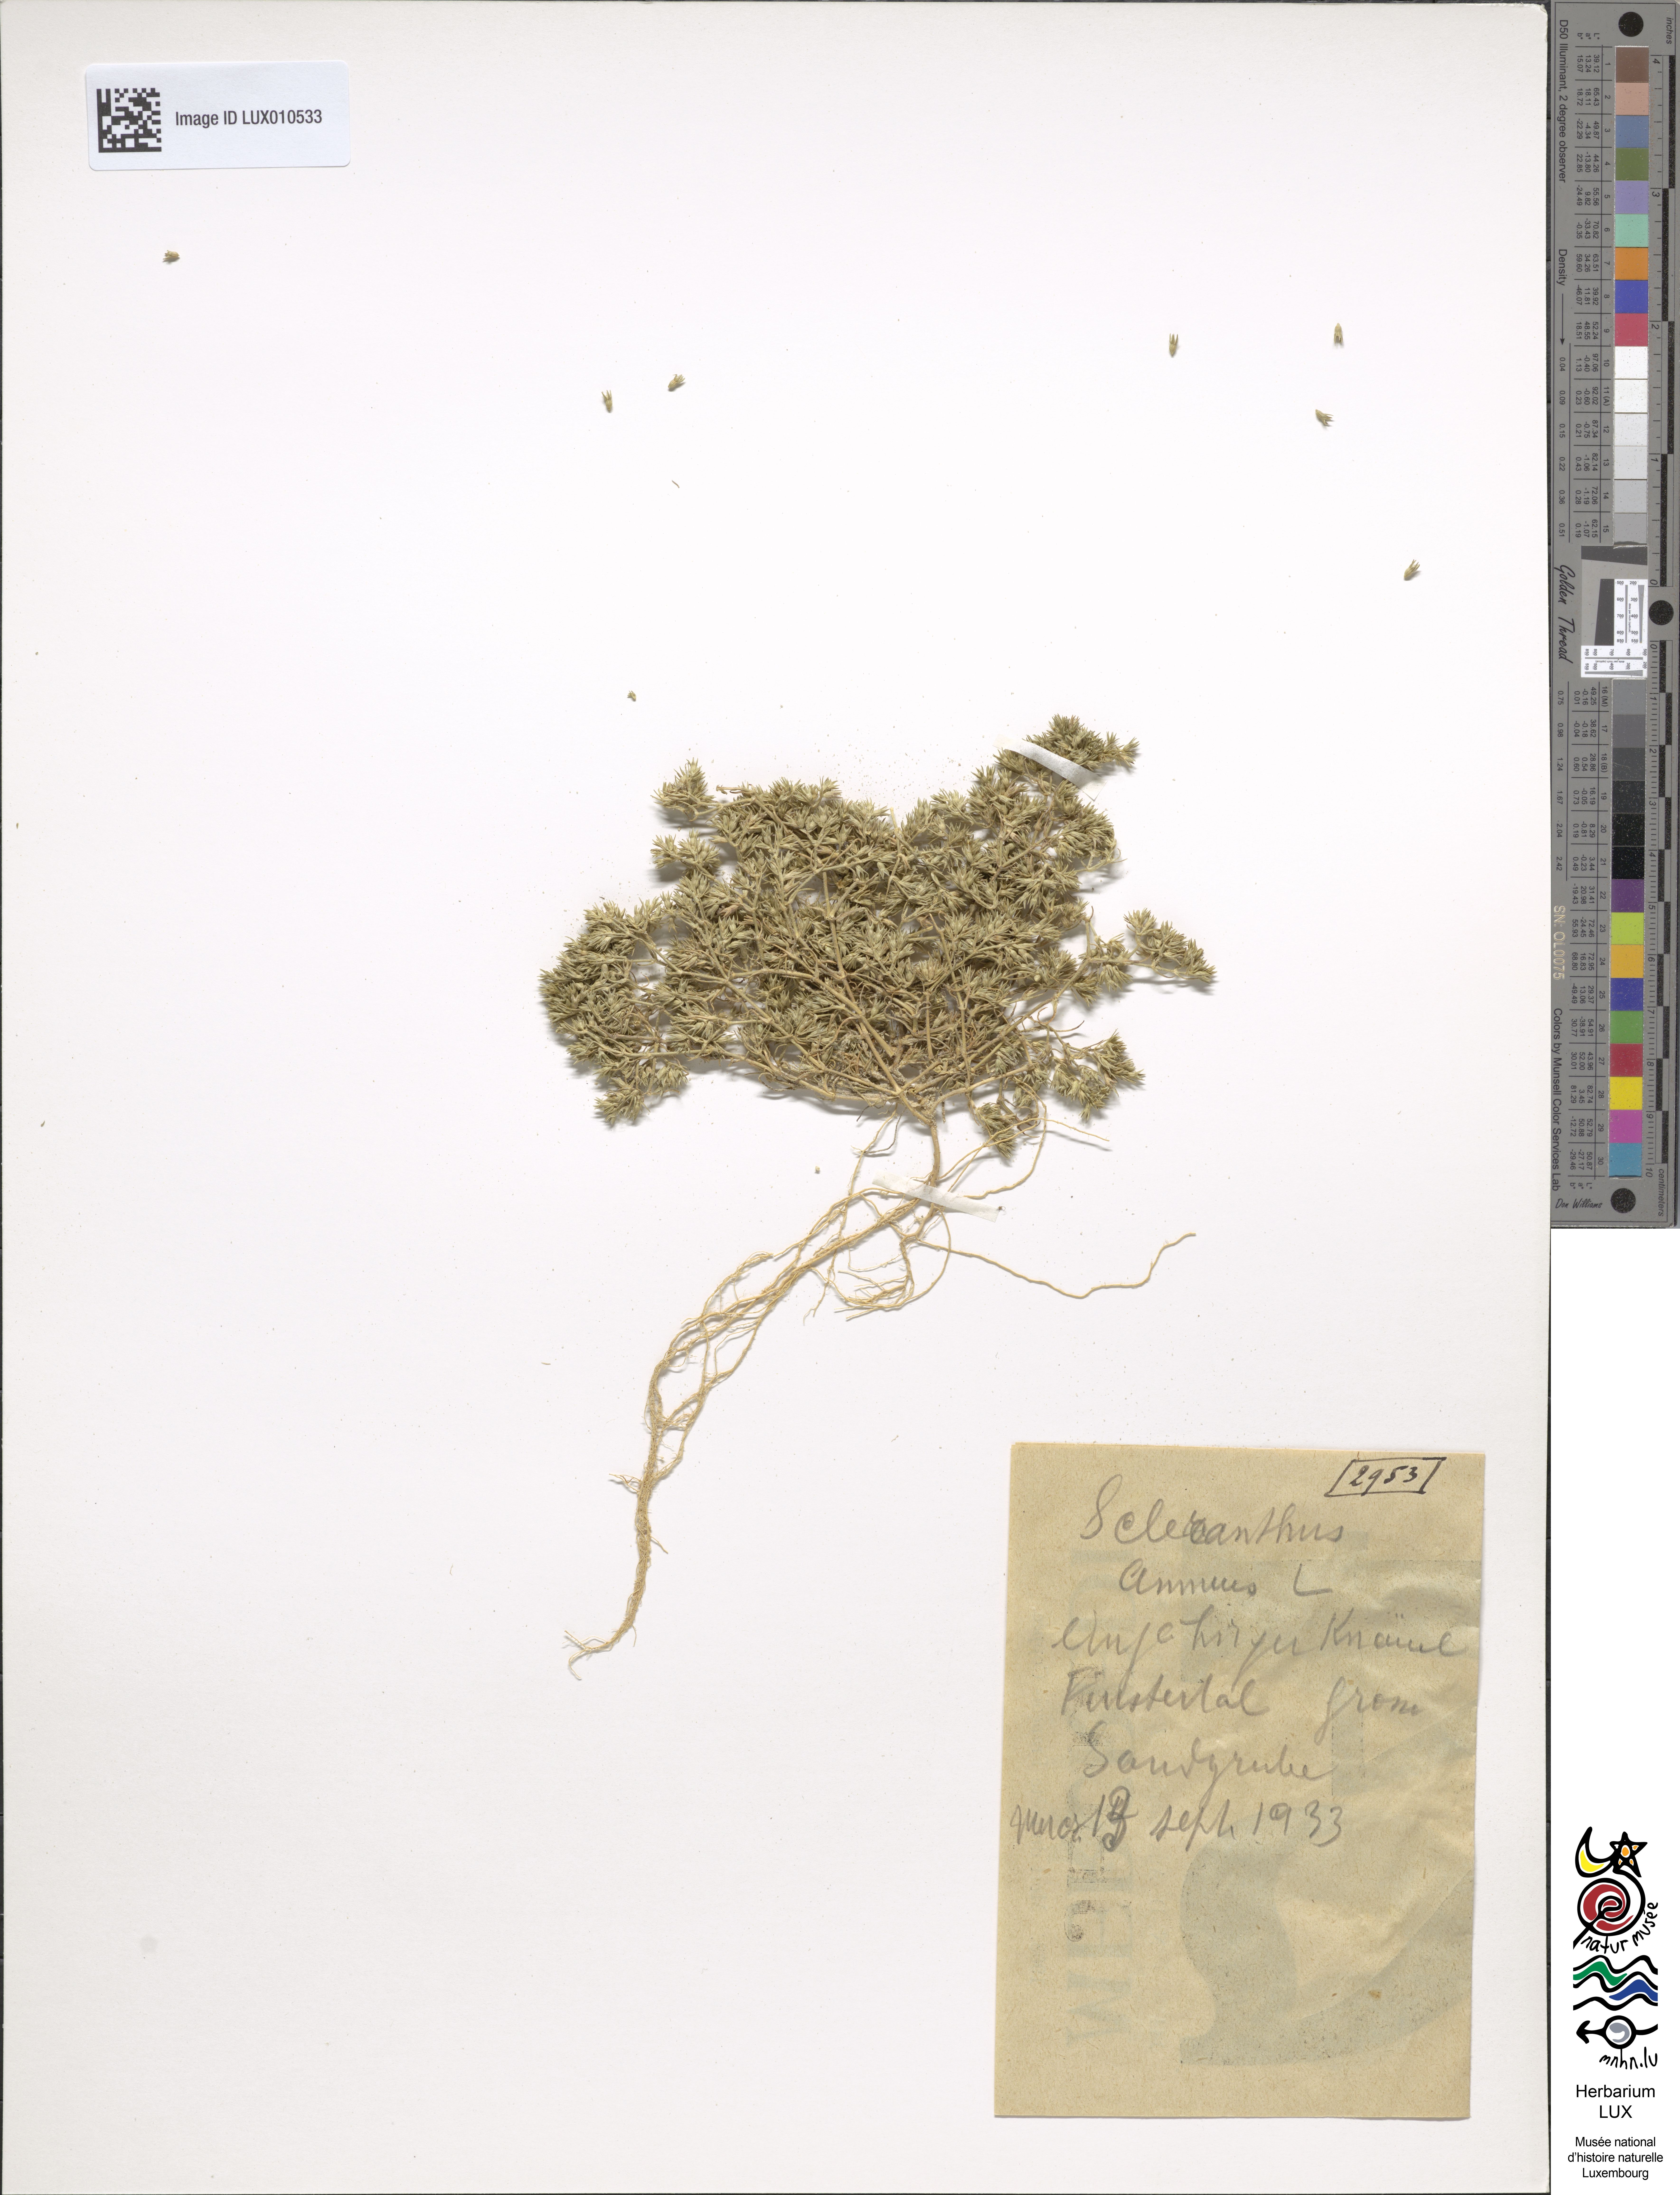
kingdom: Plantae
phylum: Tracheophyta
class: Magnoliopsida
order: Caryophyllales
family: Caryophyllaceae
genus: Scleranthus
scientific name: Scleranthus annuus
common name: Annual knawel
